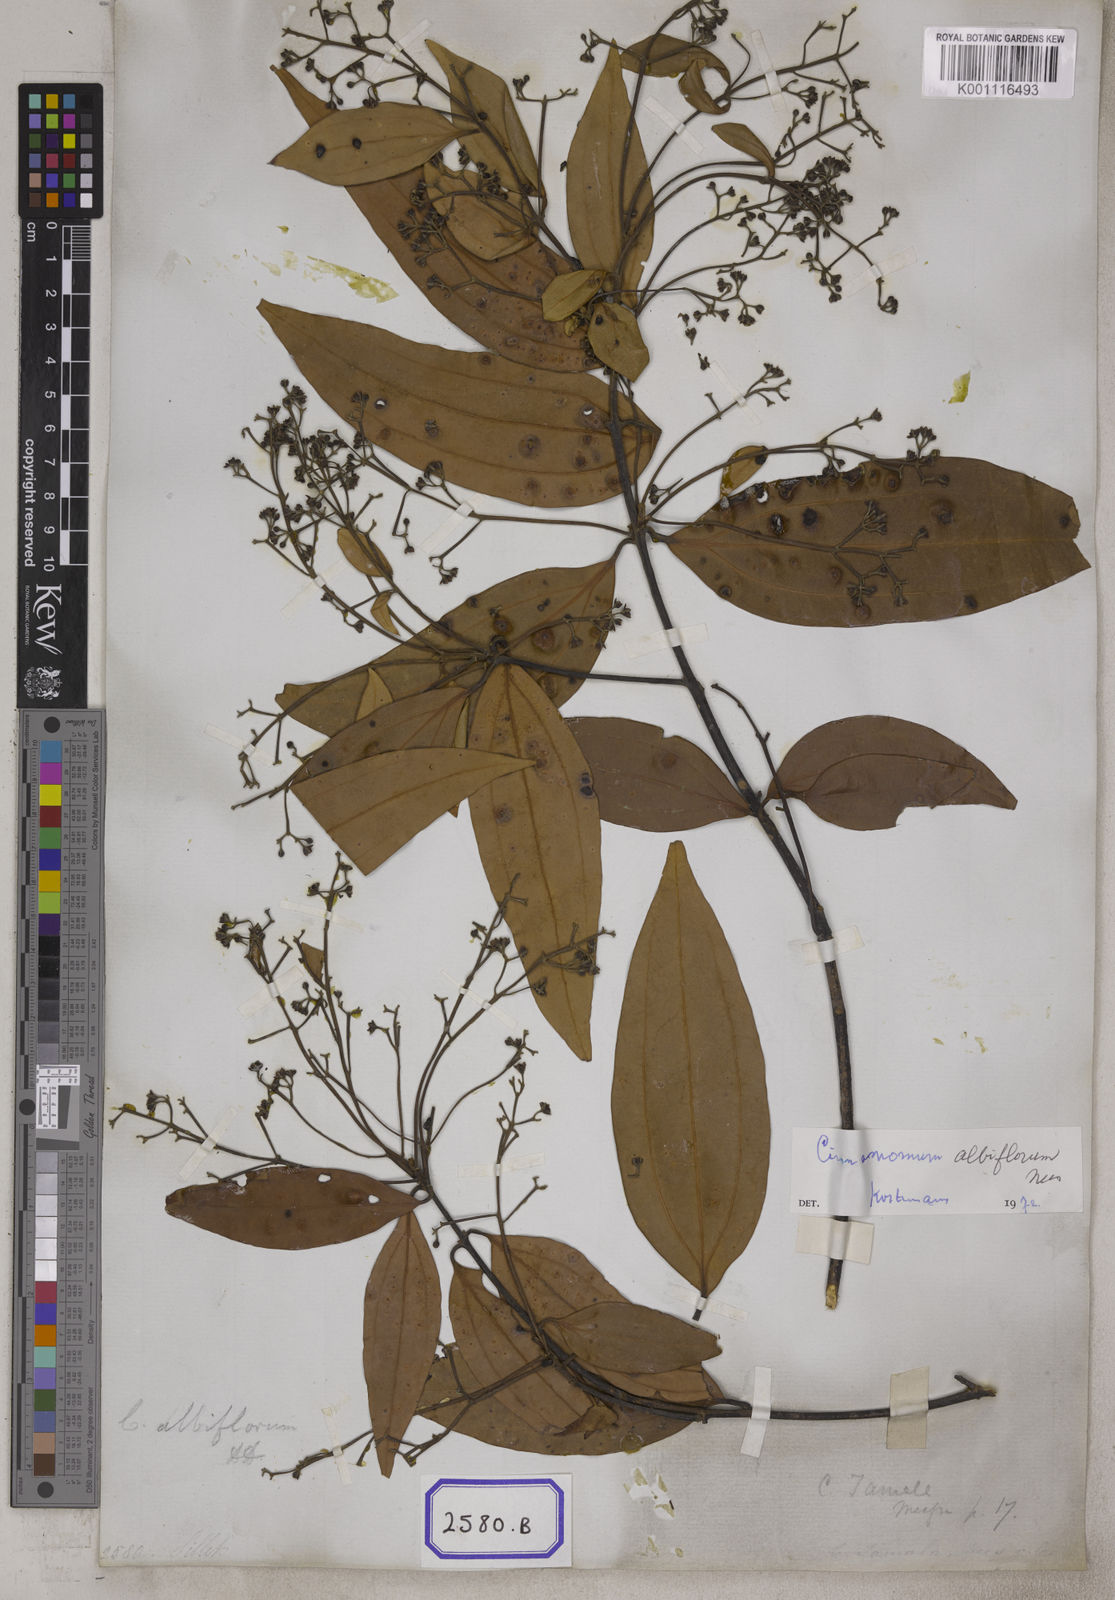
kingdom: Plantae
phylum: Tracheophyta
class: Magnoliopsida
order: Laurales
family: Lauraceae
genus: Neolitsea
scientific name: Neolitsea cassia
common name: Laurel
